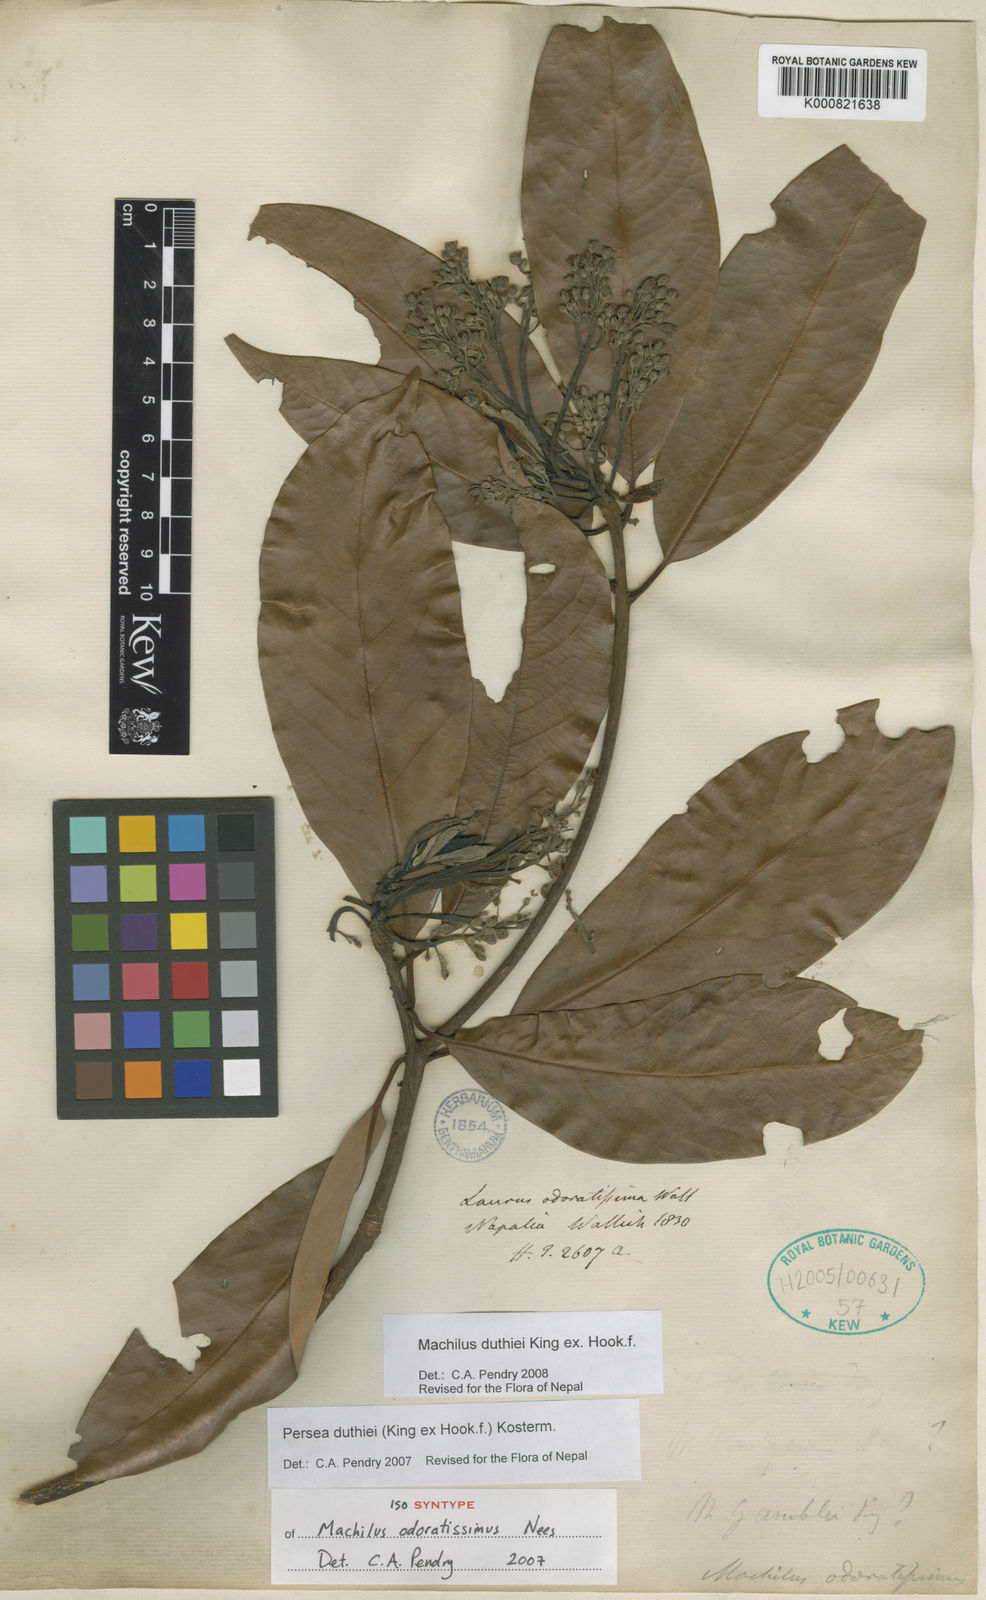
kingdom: Plantae
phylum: Tracheophyta
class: Magnoliopsida
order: Laurales
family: Lauraceae
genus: Machilus
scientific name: Machilus duthiei
